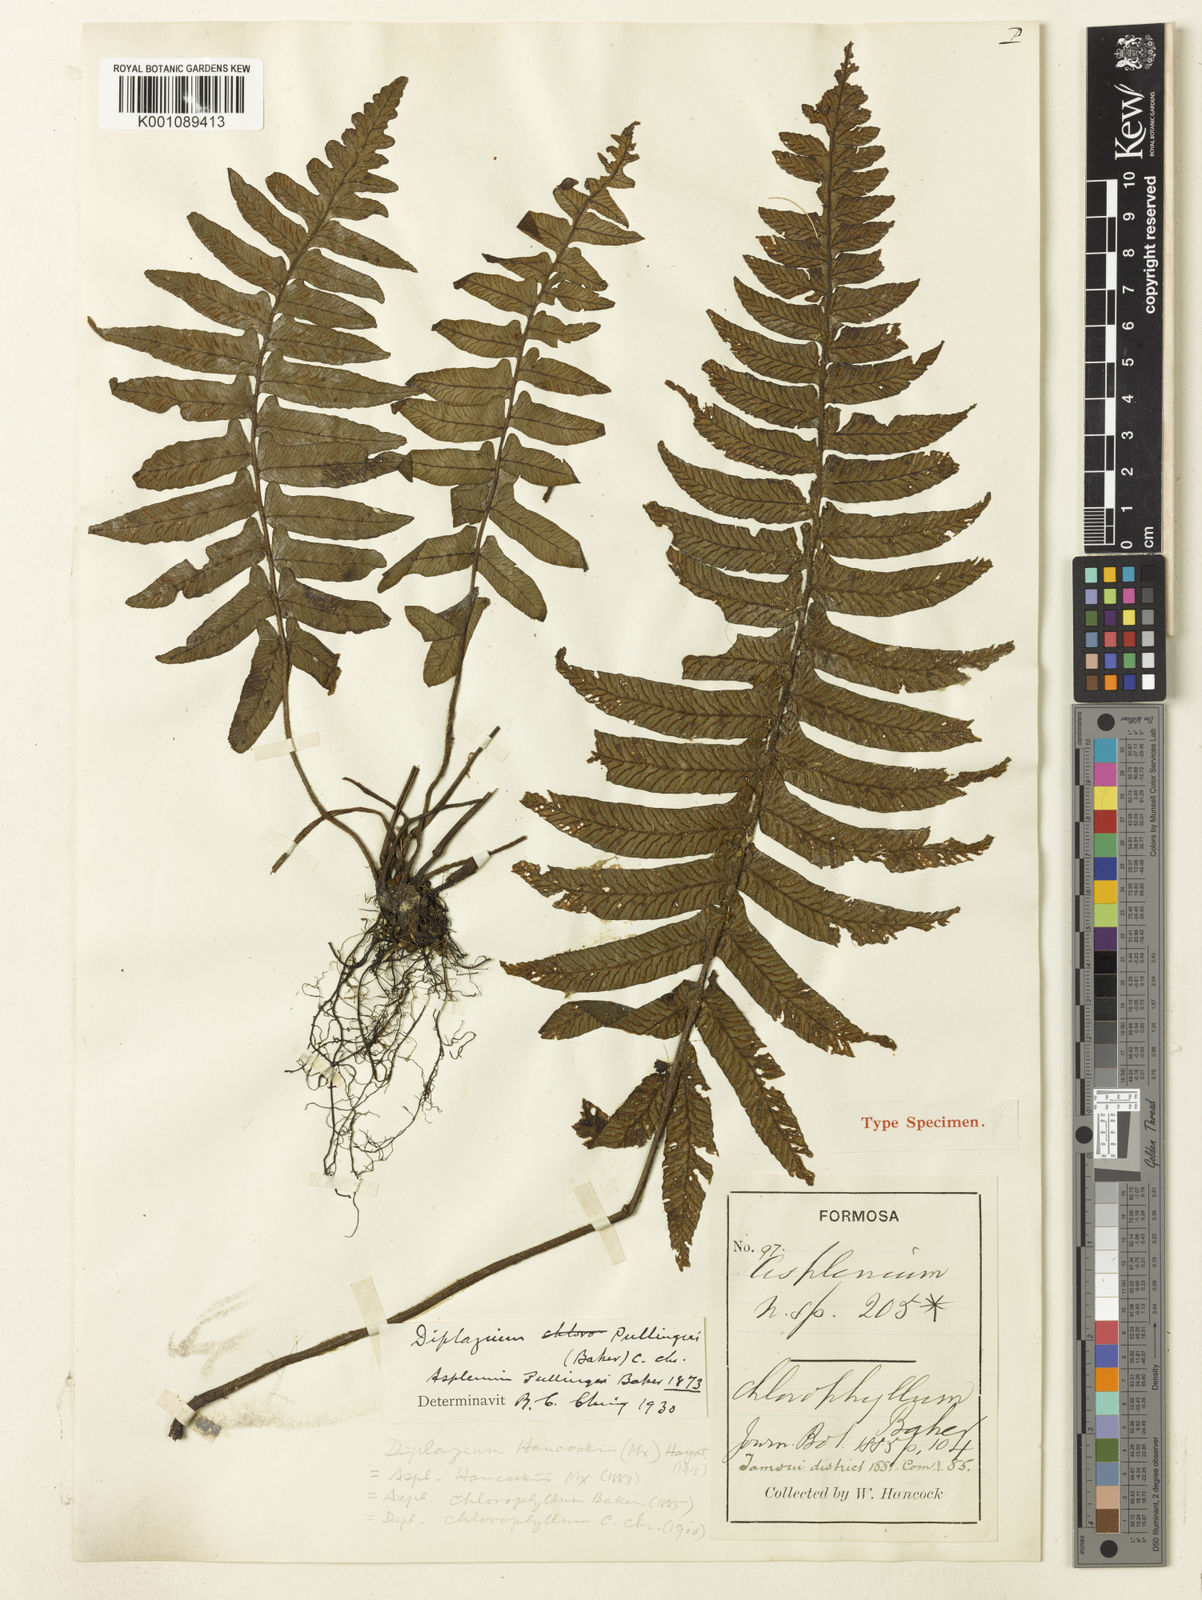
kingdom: Plantae
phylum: Tracheophyta
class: Polypodiopsida
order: Polypodiales
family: Athyriaceae
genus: Diplazium
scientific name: Diplazium pullingeri
